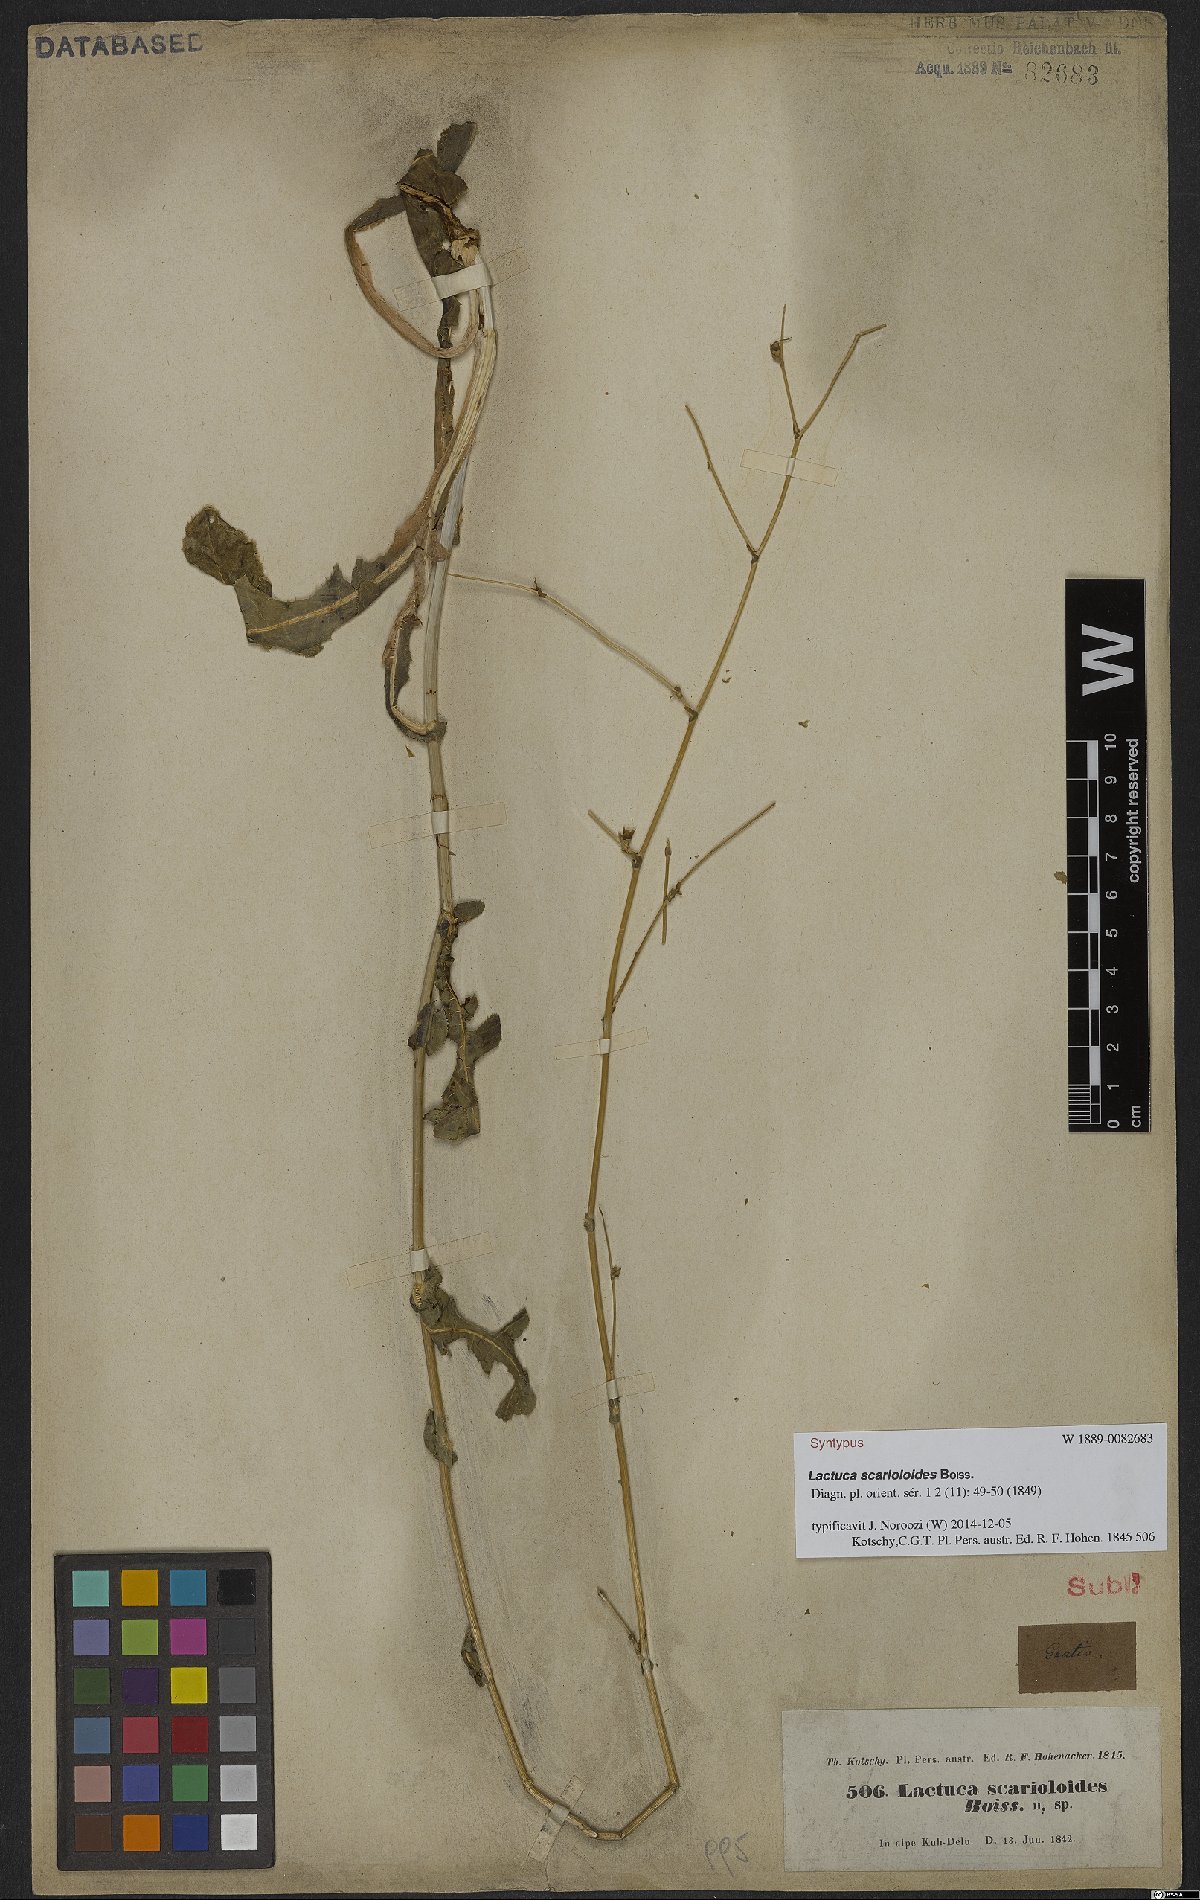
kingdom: Plantae
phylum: Tracheophyta
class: Magnoliopsida
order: Asterales
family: Asteraceae
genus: Lactuca
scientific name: Lactuca scarioloides
